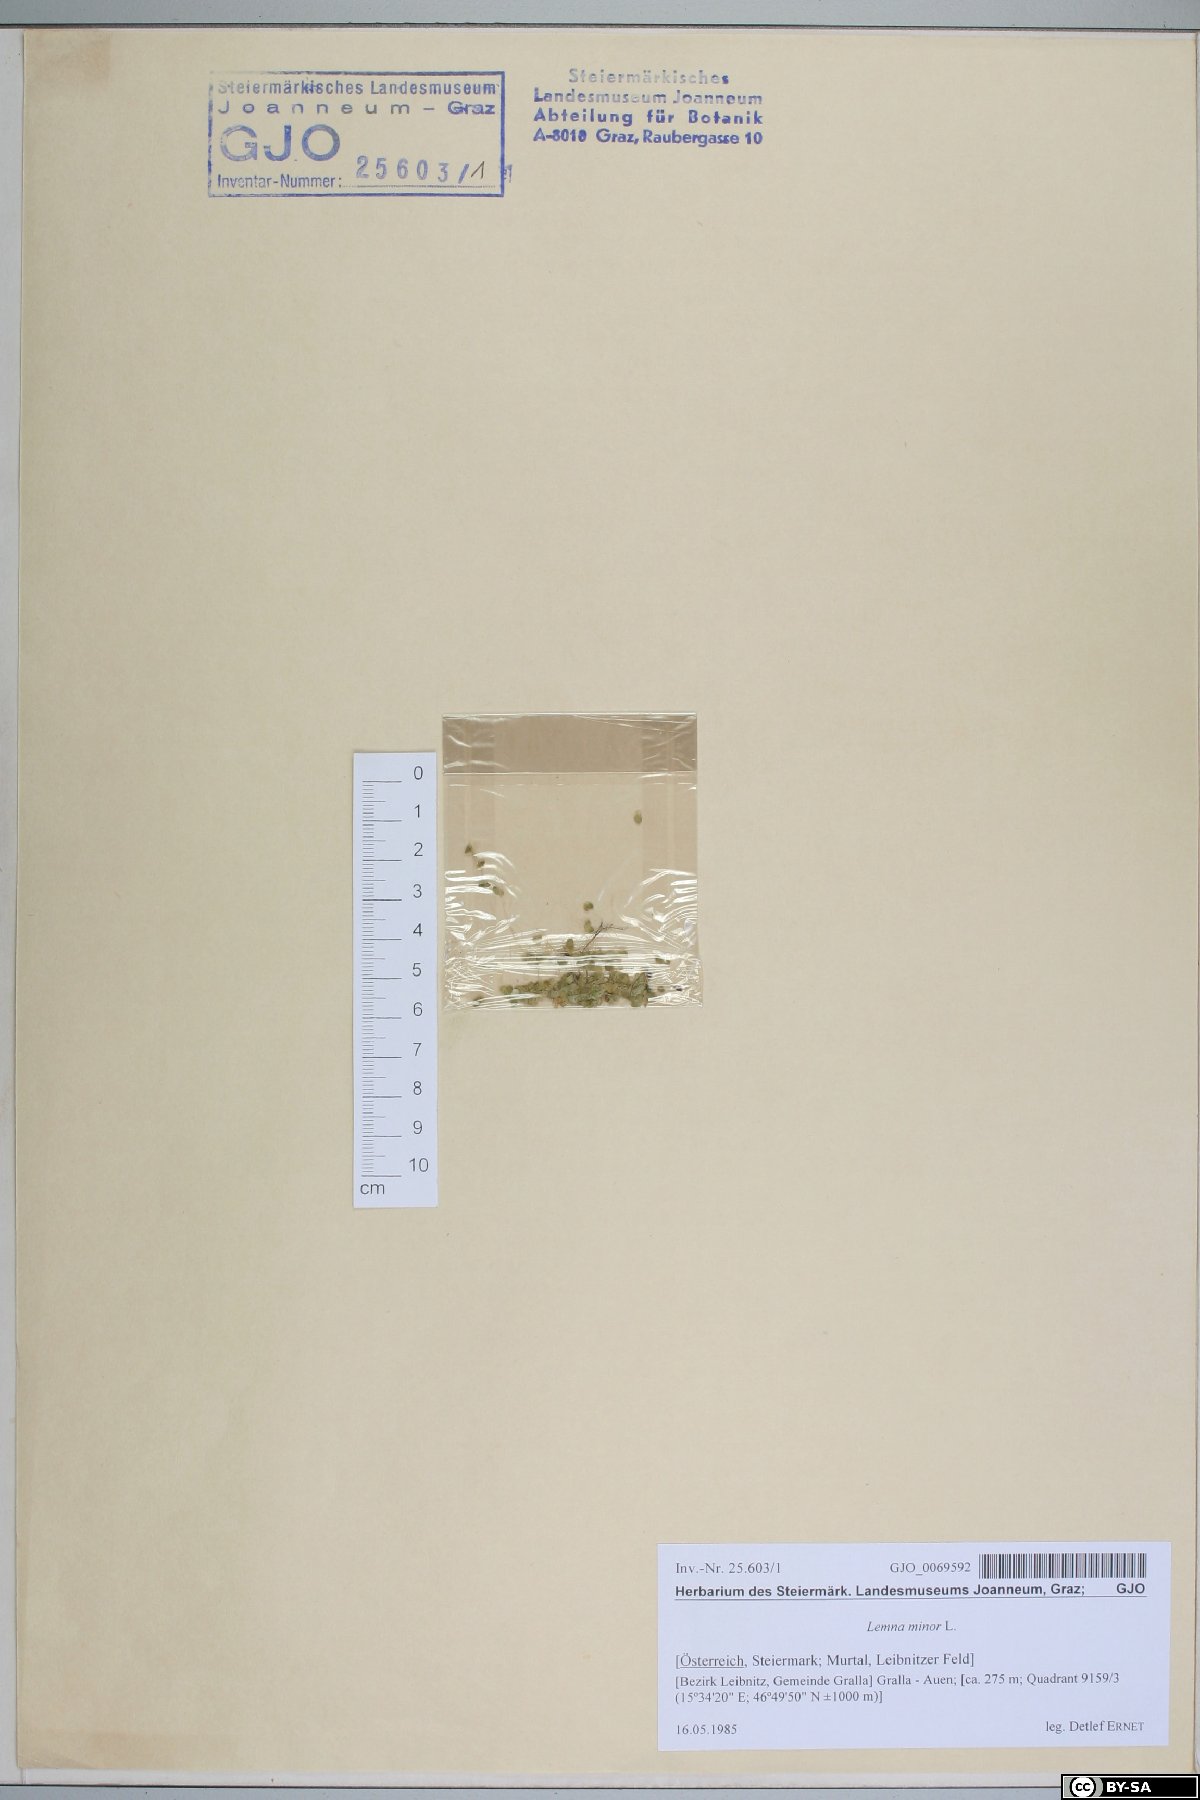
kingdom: Plantae
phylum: Tracheophyta
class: Liliopsida
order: Alismatales
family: Araceae
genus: Lemna
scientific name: Lemna minor
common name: Common duckweed
